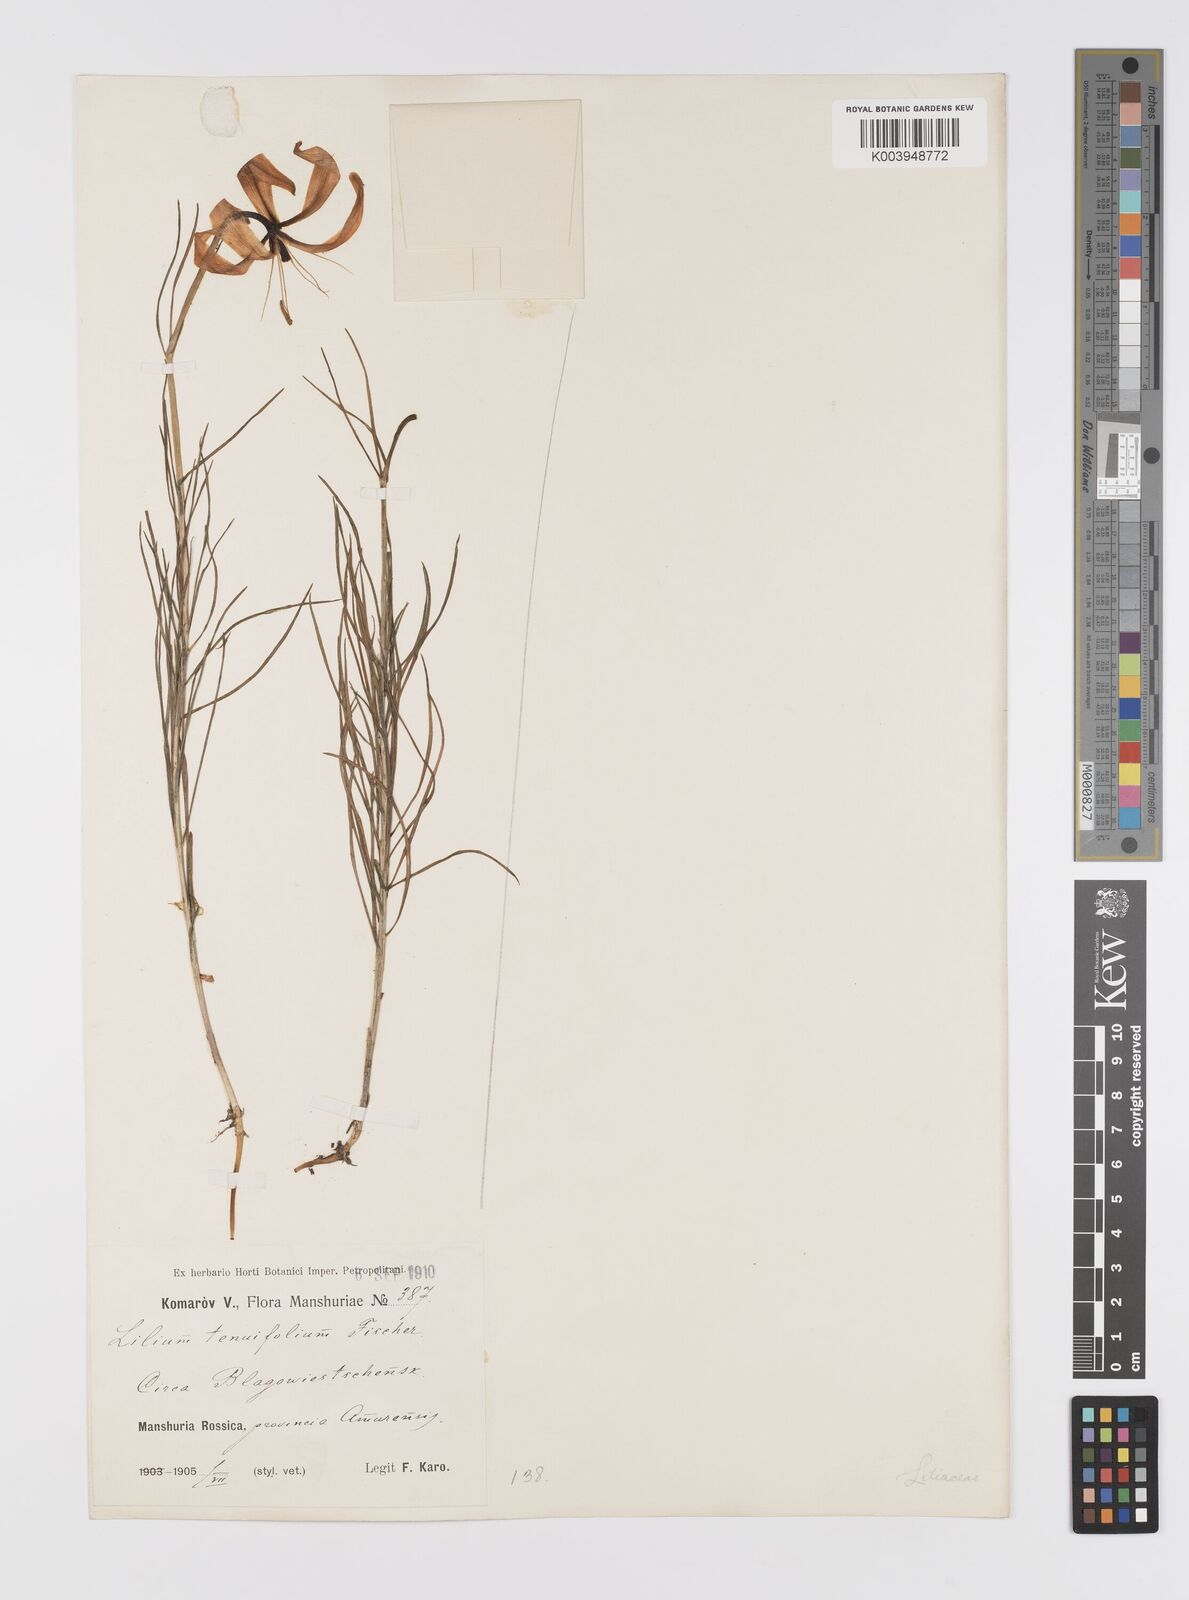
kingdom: Plantae
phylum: Tracheophyta
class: Liliopsida
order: Liliales
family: Liliaceae
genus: Lilium
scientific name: Lilium pumilum
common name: Coral lily
